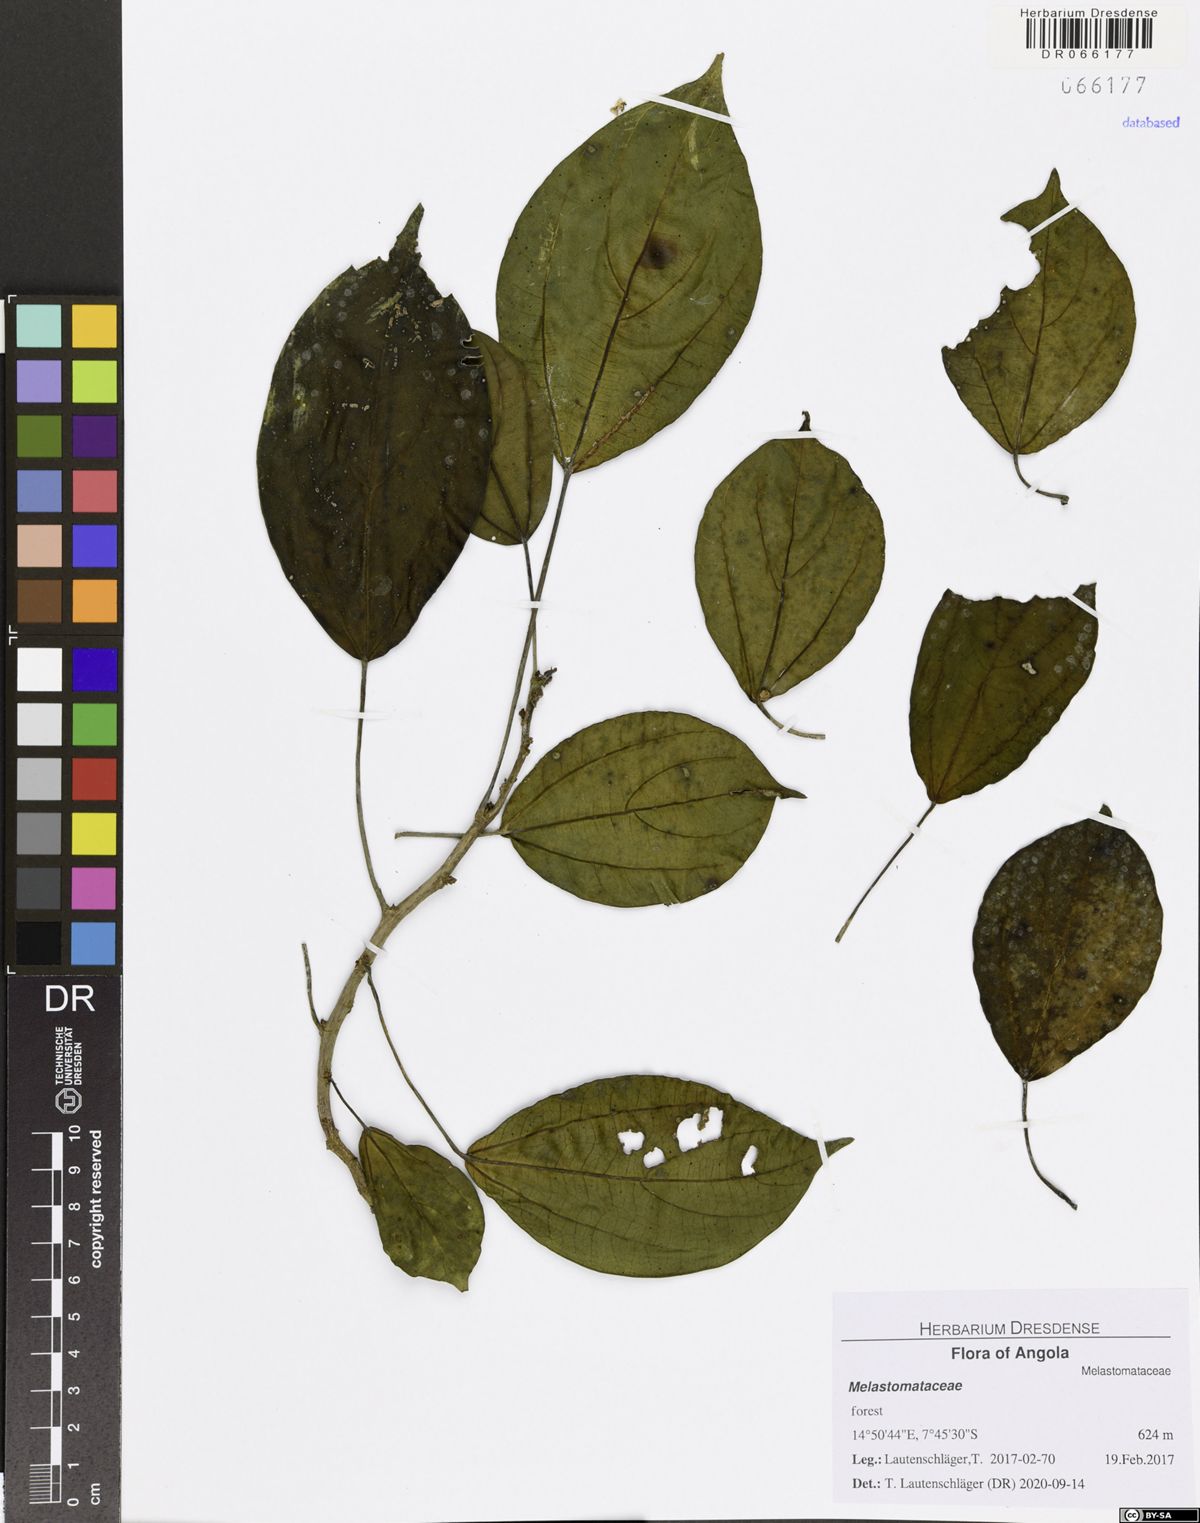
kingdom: Plantae
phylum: Tracheophyta
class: Magnoliopsida
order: Myrtales
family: Melastomataceae
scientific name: Melastomataceae
